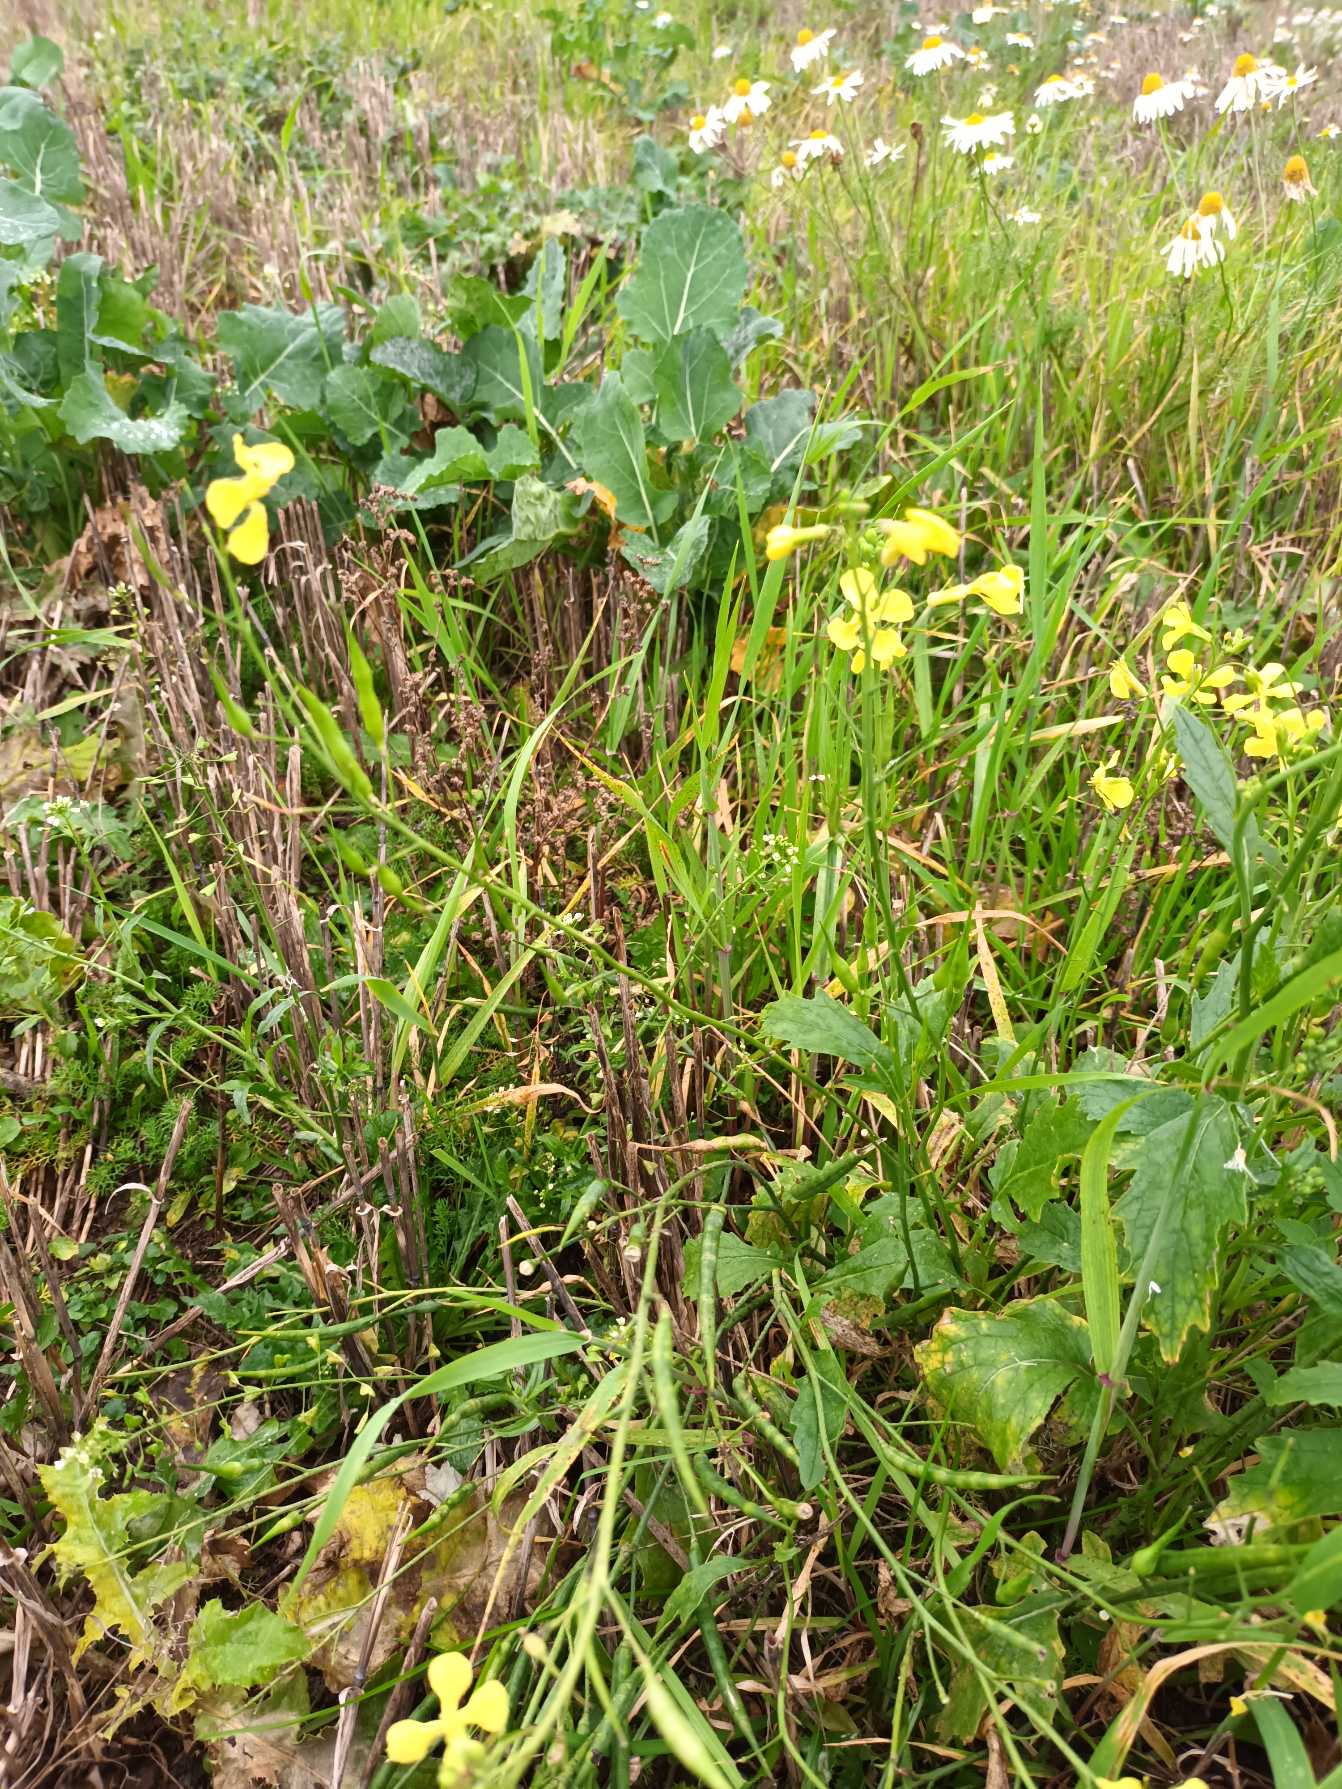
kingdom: Plantae
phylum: Tracheophyta
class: Magnoliopsida
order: Brassicales
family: Brassicaceae
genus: Raphanus
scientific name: Raphanus raphanistrum
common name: Kiddike
